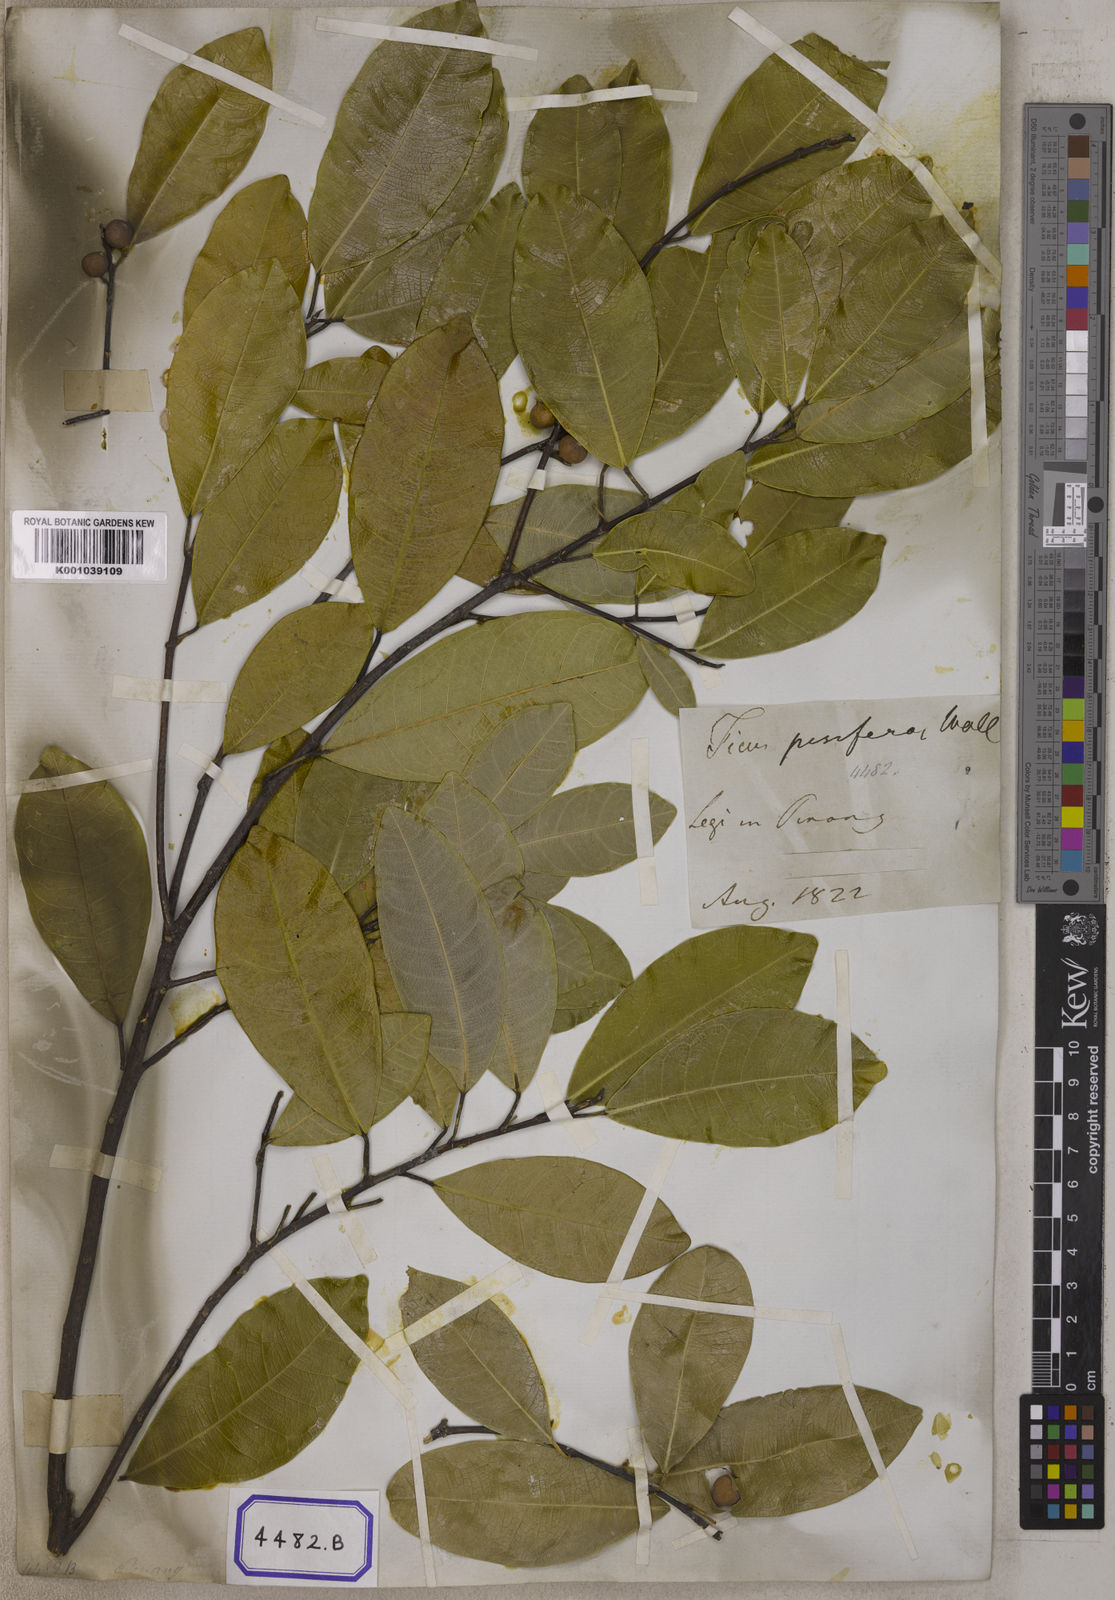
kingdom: Plantae
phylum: Tracheophyta
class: Magnoliopsida
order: Rosales
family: Moraceae
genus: Ficus
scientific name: Ficus
